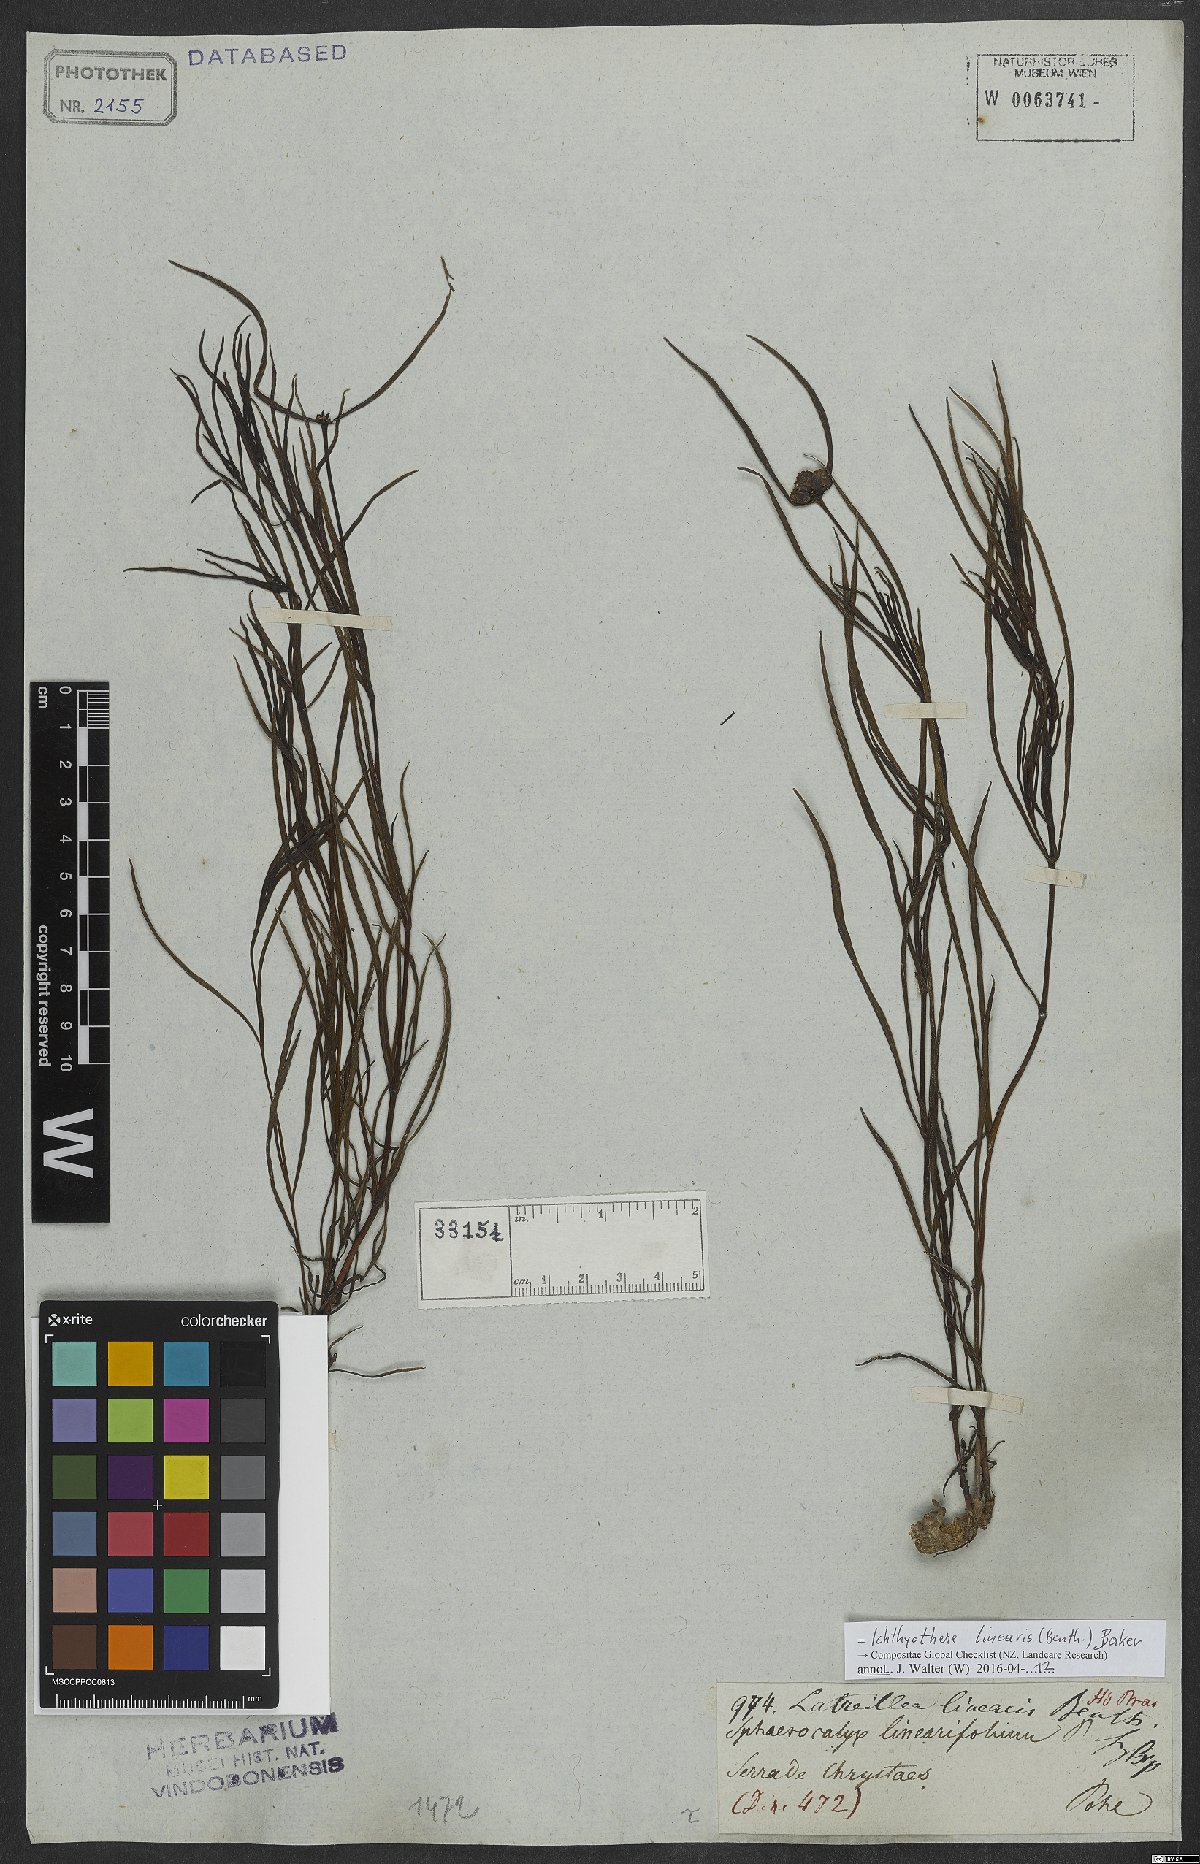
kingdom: Plantae
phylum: Tracheophyta
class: Magnoliopsida
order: Asterales
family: Asteraceae
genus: Ichthyothere
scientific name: Ichthyothere linearis
